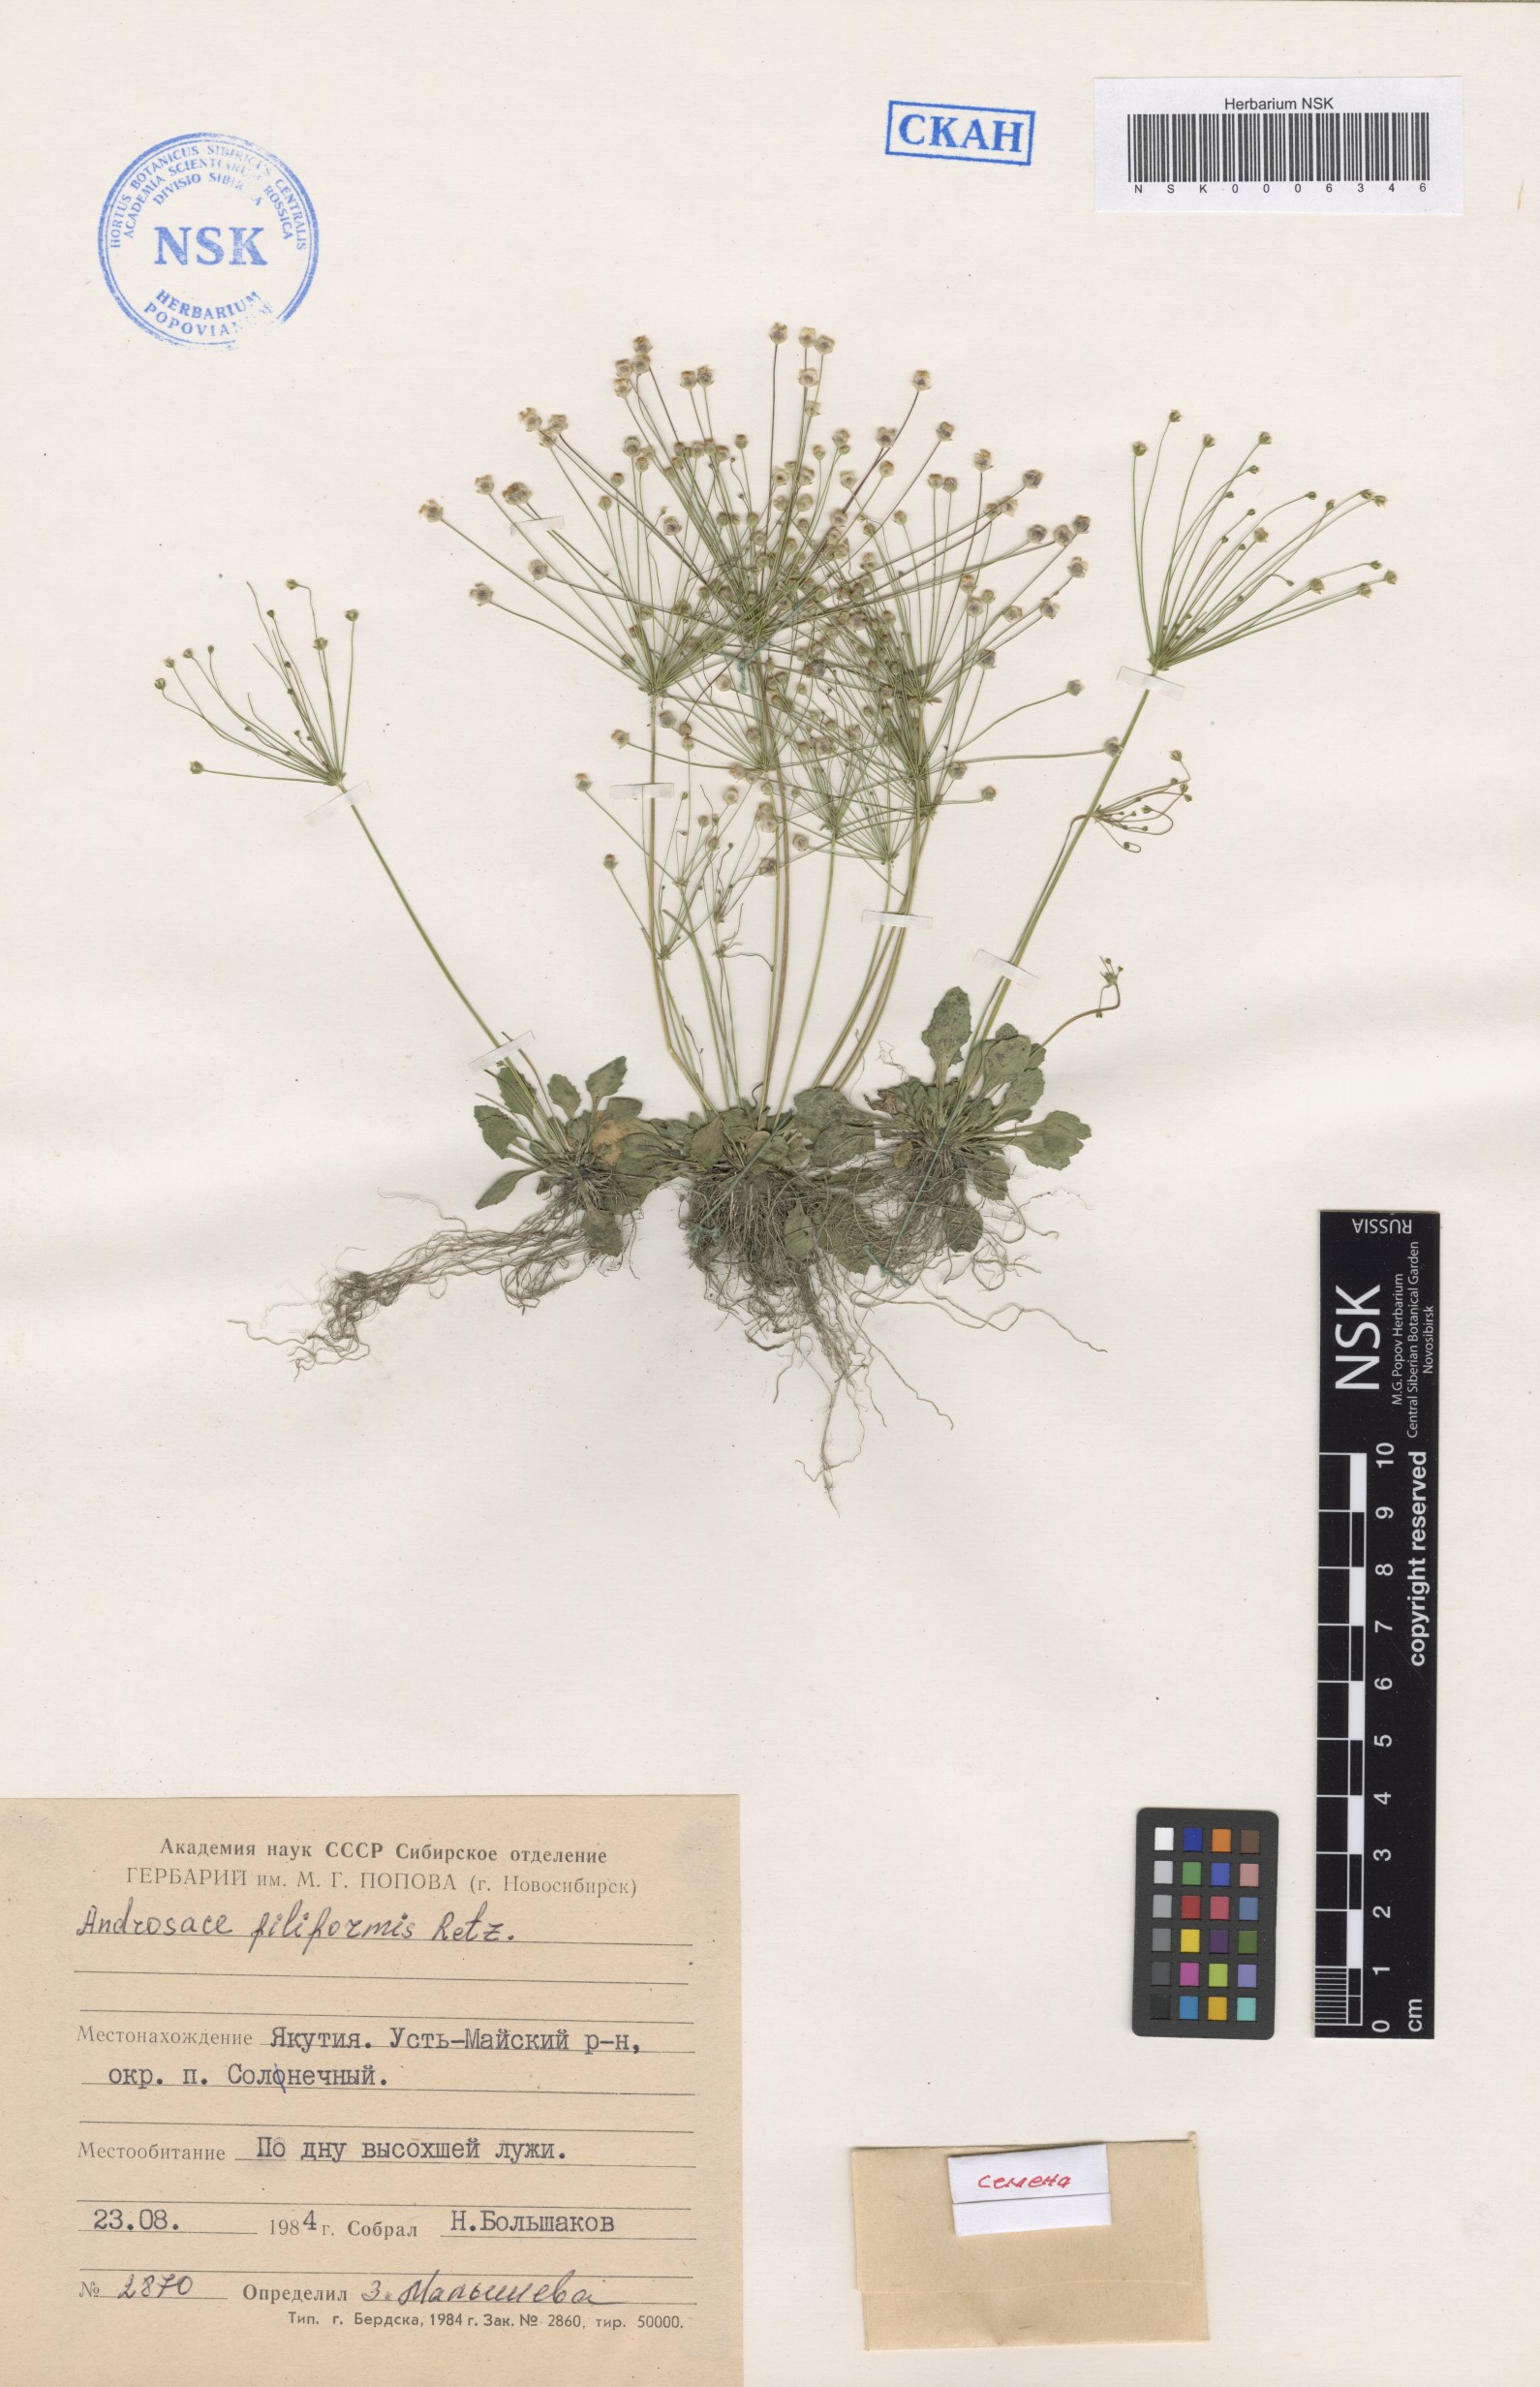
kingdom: Plantae
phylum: Tracheophyta
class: Magnoliopsida
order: Ericales
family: Primulaceae
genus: Androsace
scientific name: Androsace filiformis
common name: Filiform rock jasmine
